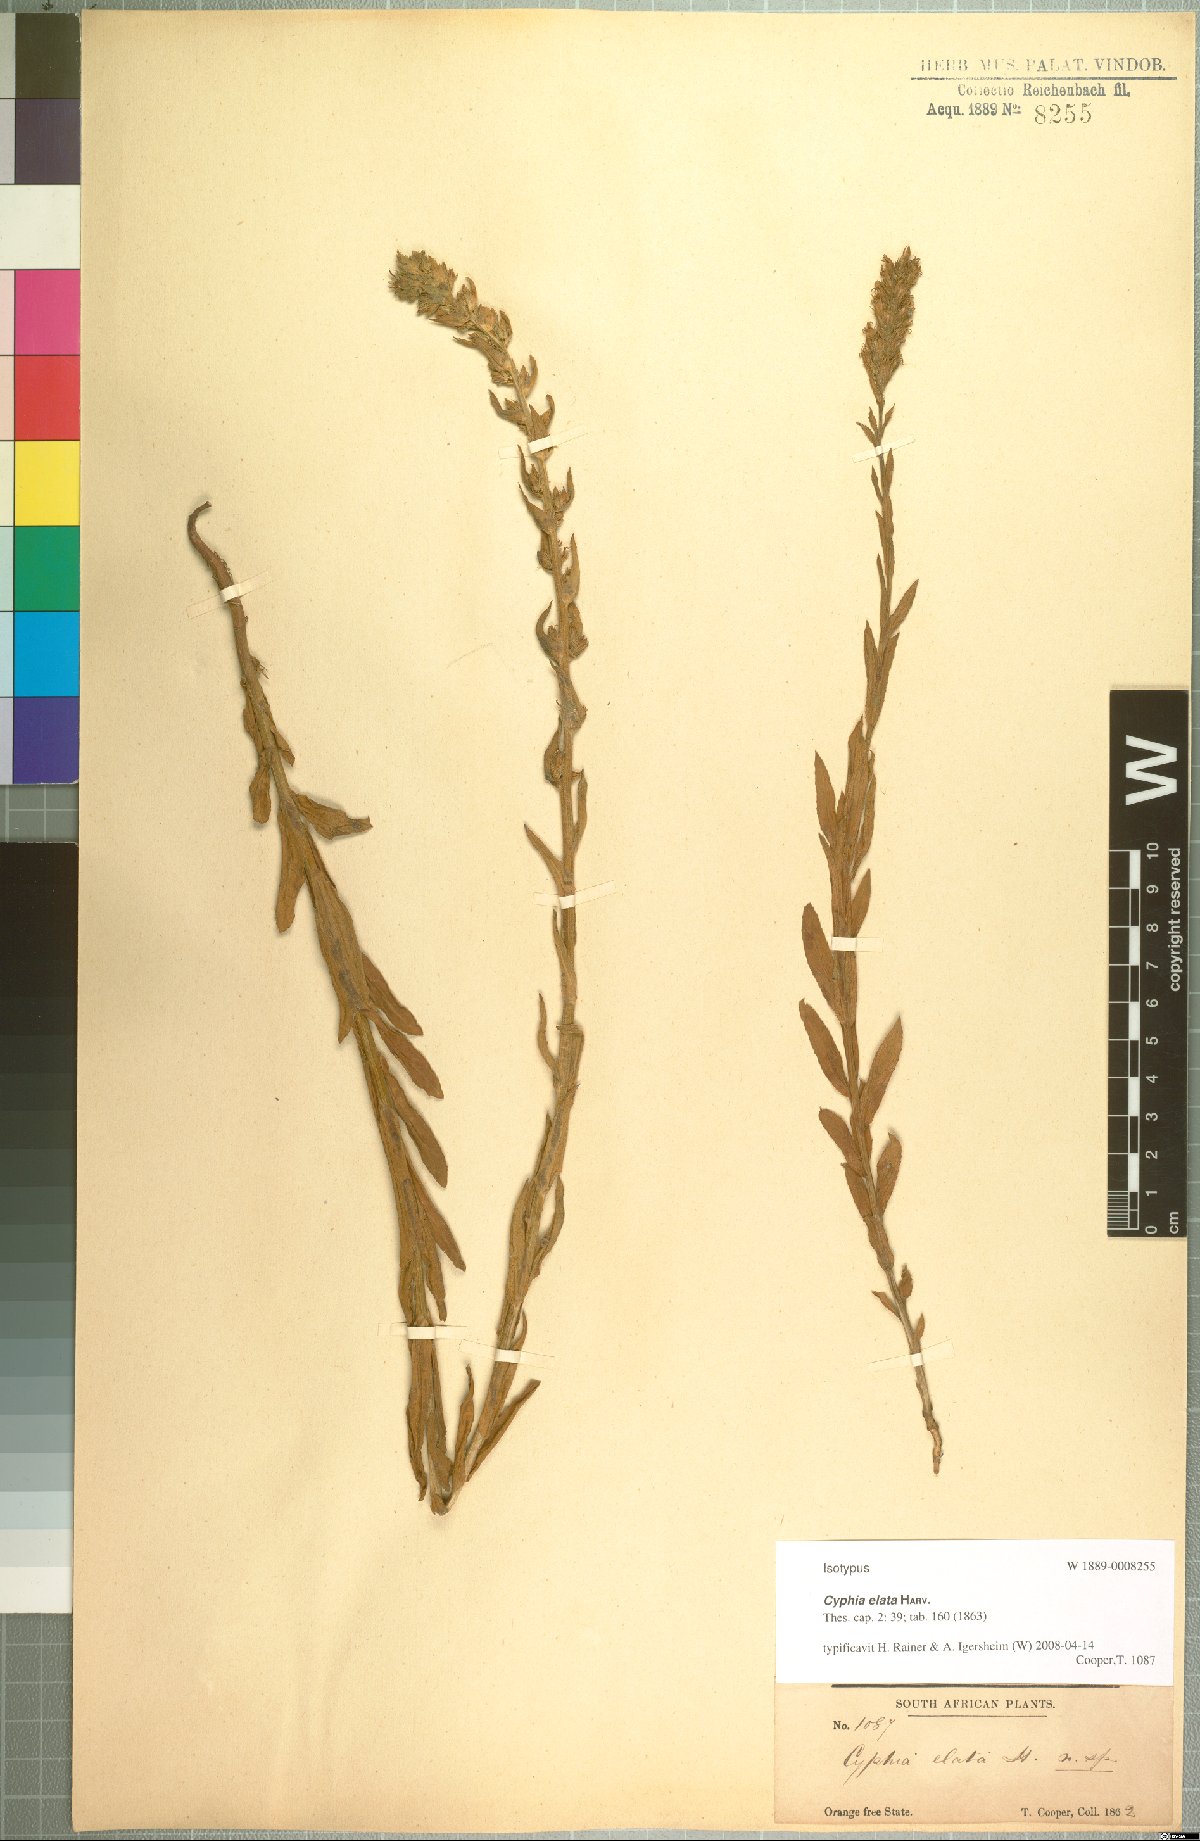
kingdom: Plantae
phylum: Tracheophyta
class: Magnoliopsida
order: Asterales
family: Campanulaceae
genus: Cyphia
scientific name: Cyphia elata
